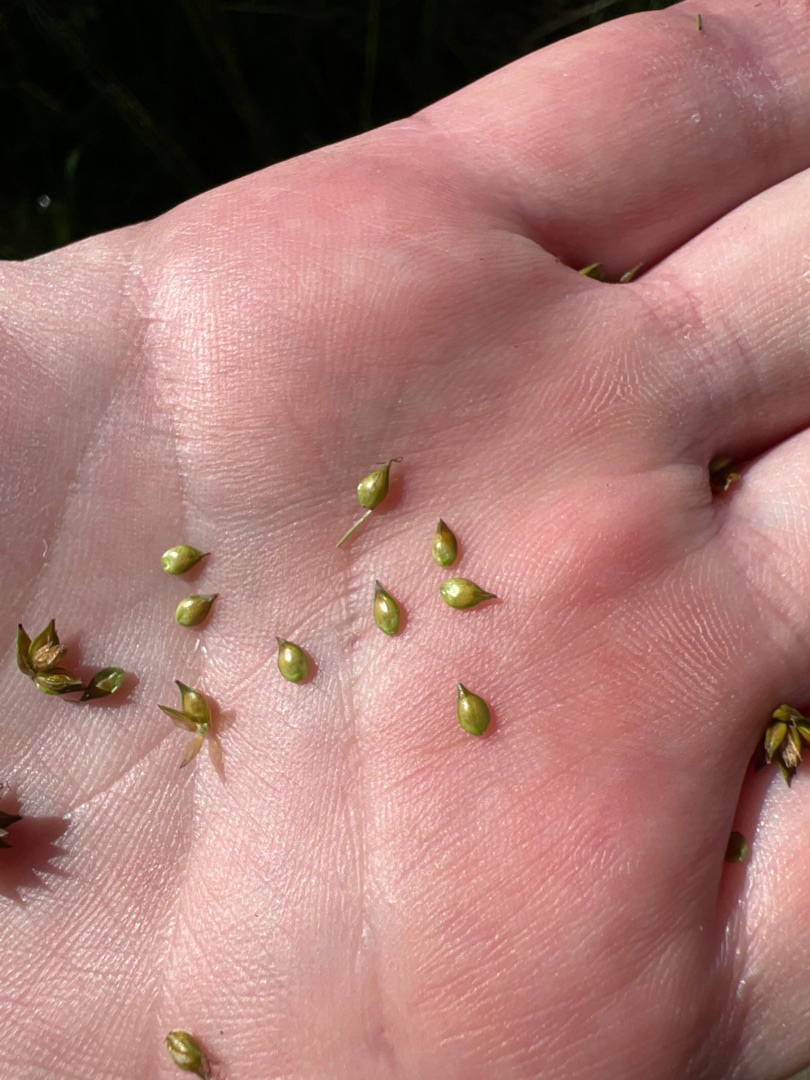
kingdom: Plantae
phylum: Tracheophyta
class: Liliopsida
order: Poales
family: Cyperaceae
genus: Carex
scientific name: Carex pairae
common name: Pigget star
